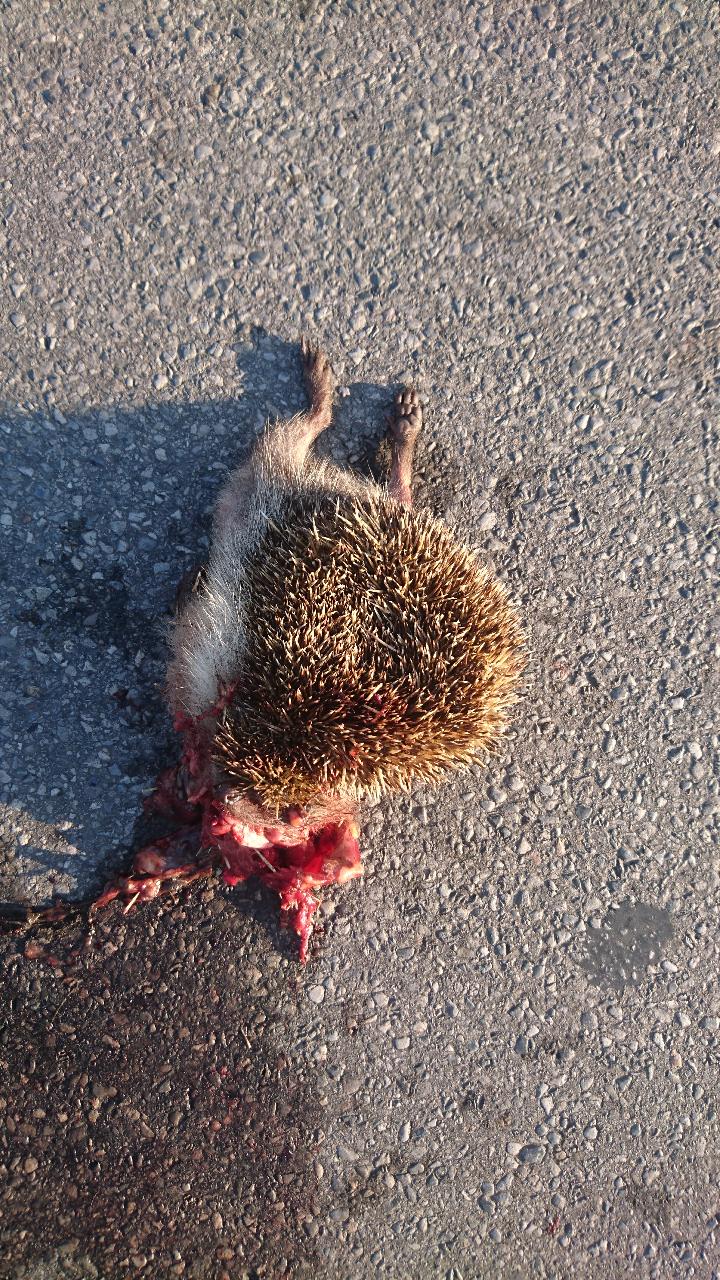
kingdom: Animalia
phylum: Chordata
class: Mammalia
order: Erinaceomorpha
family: Erinaceidae
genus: Erinaceus
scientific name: Erinaceus
